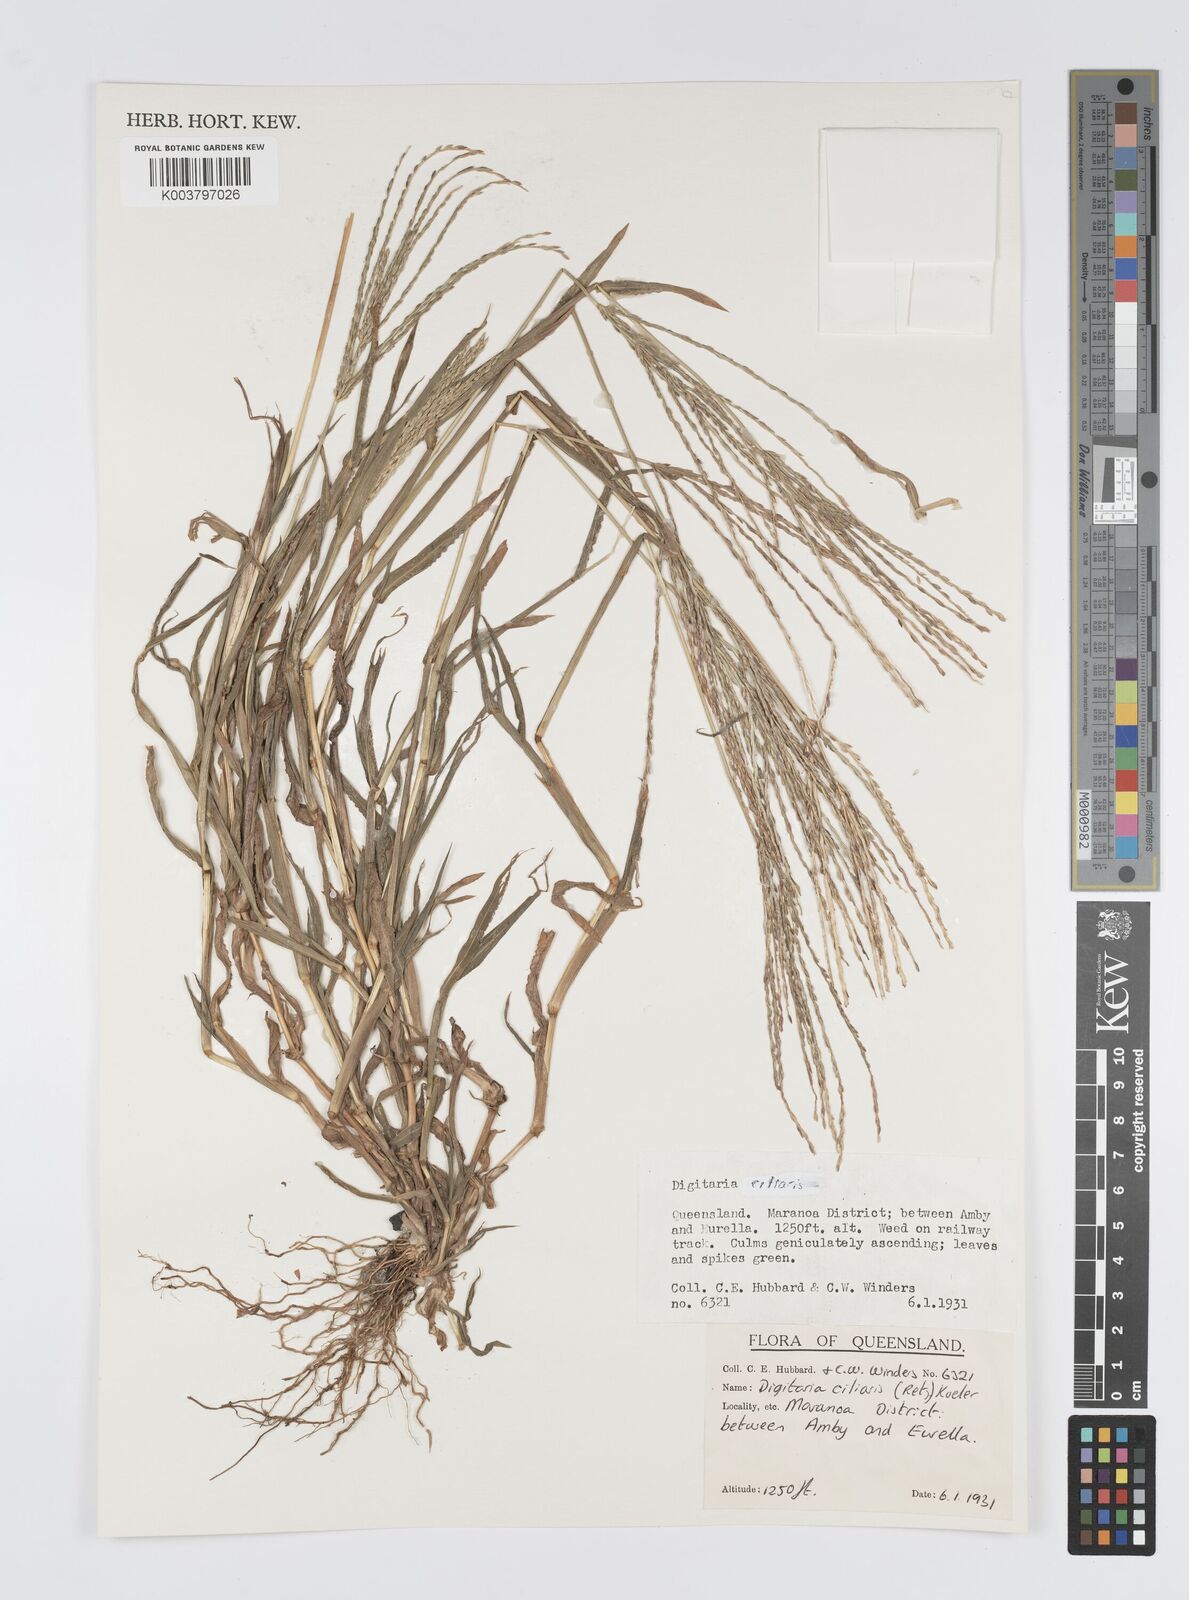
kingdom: Plantae
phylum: Tracheophyta
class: Liliopsida
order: Poales
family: Poaceae
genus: Digitaria
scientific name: Digitaria ciliaris
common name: Tropical finger-grass
